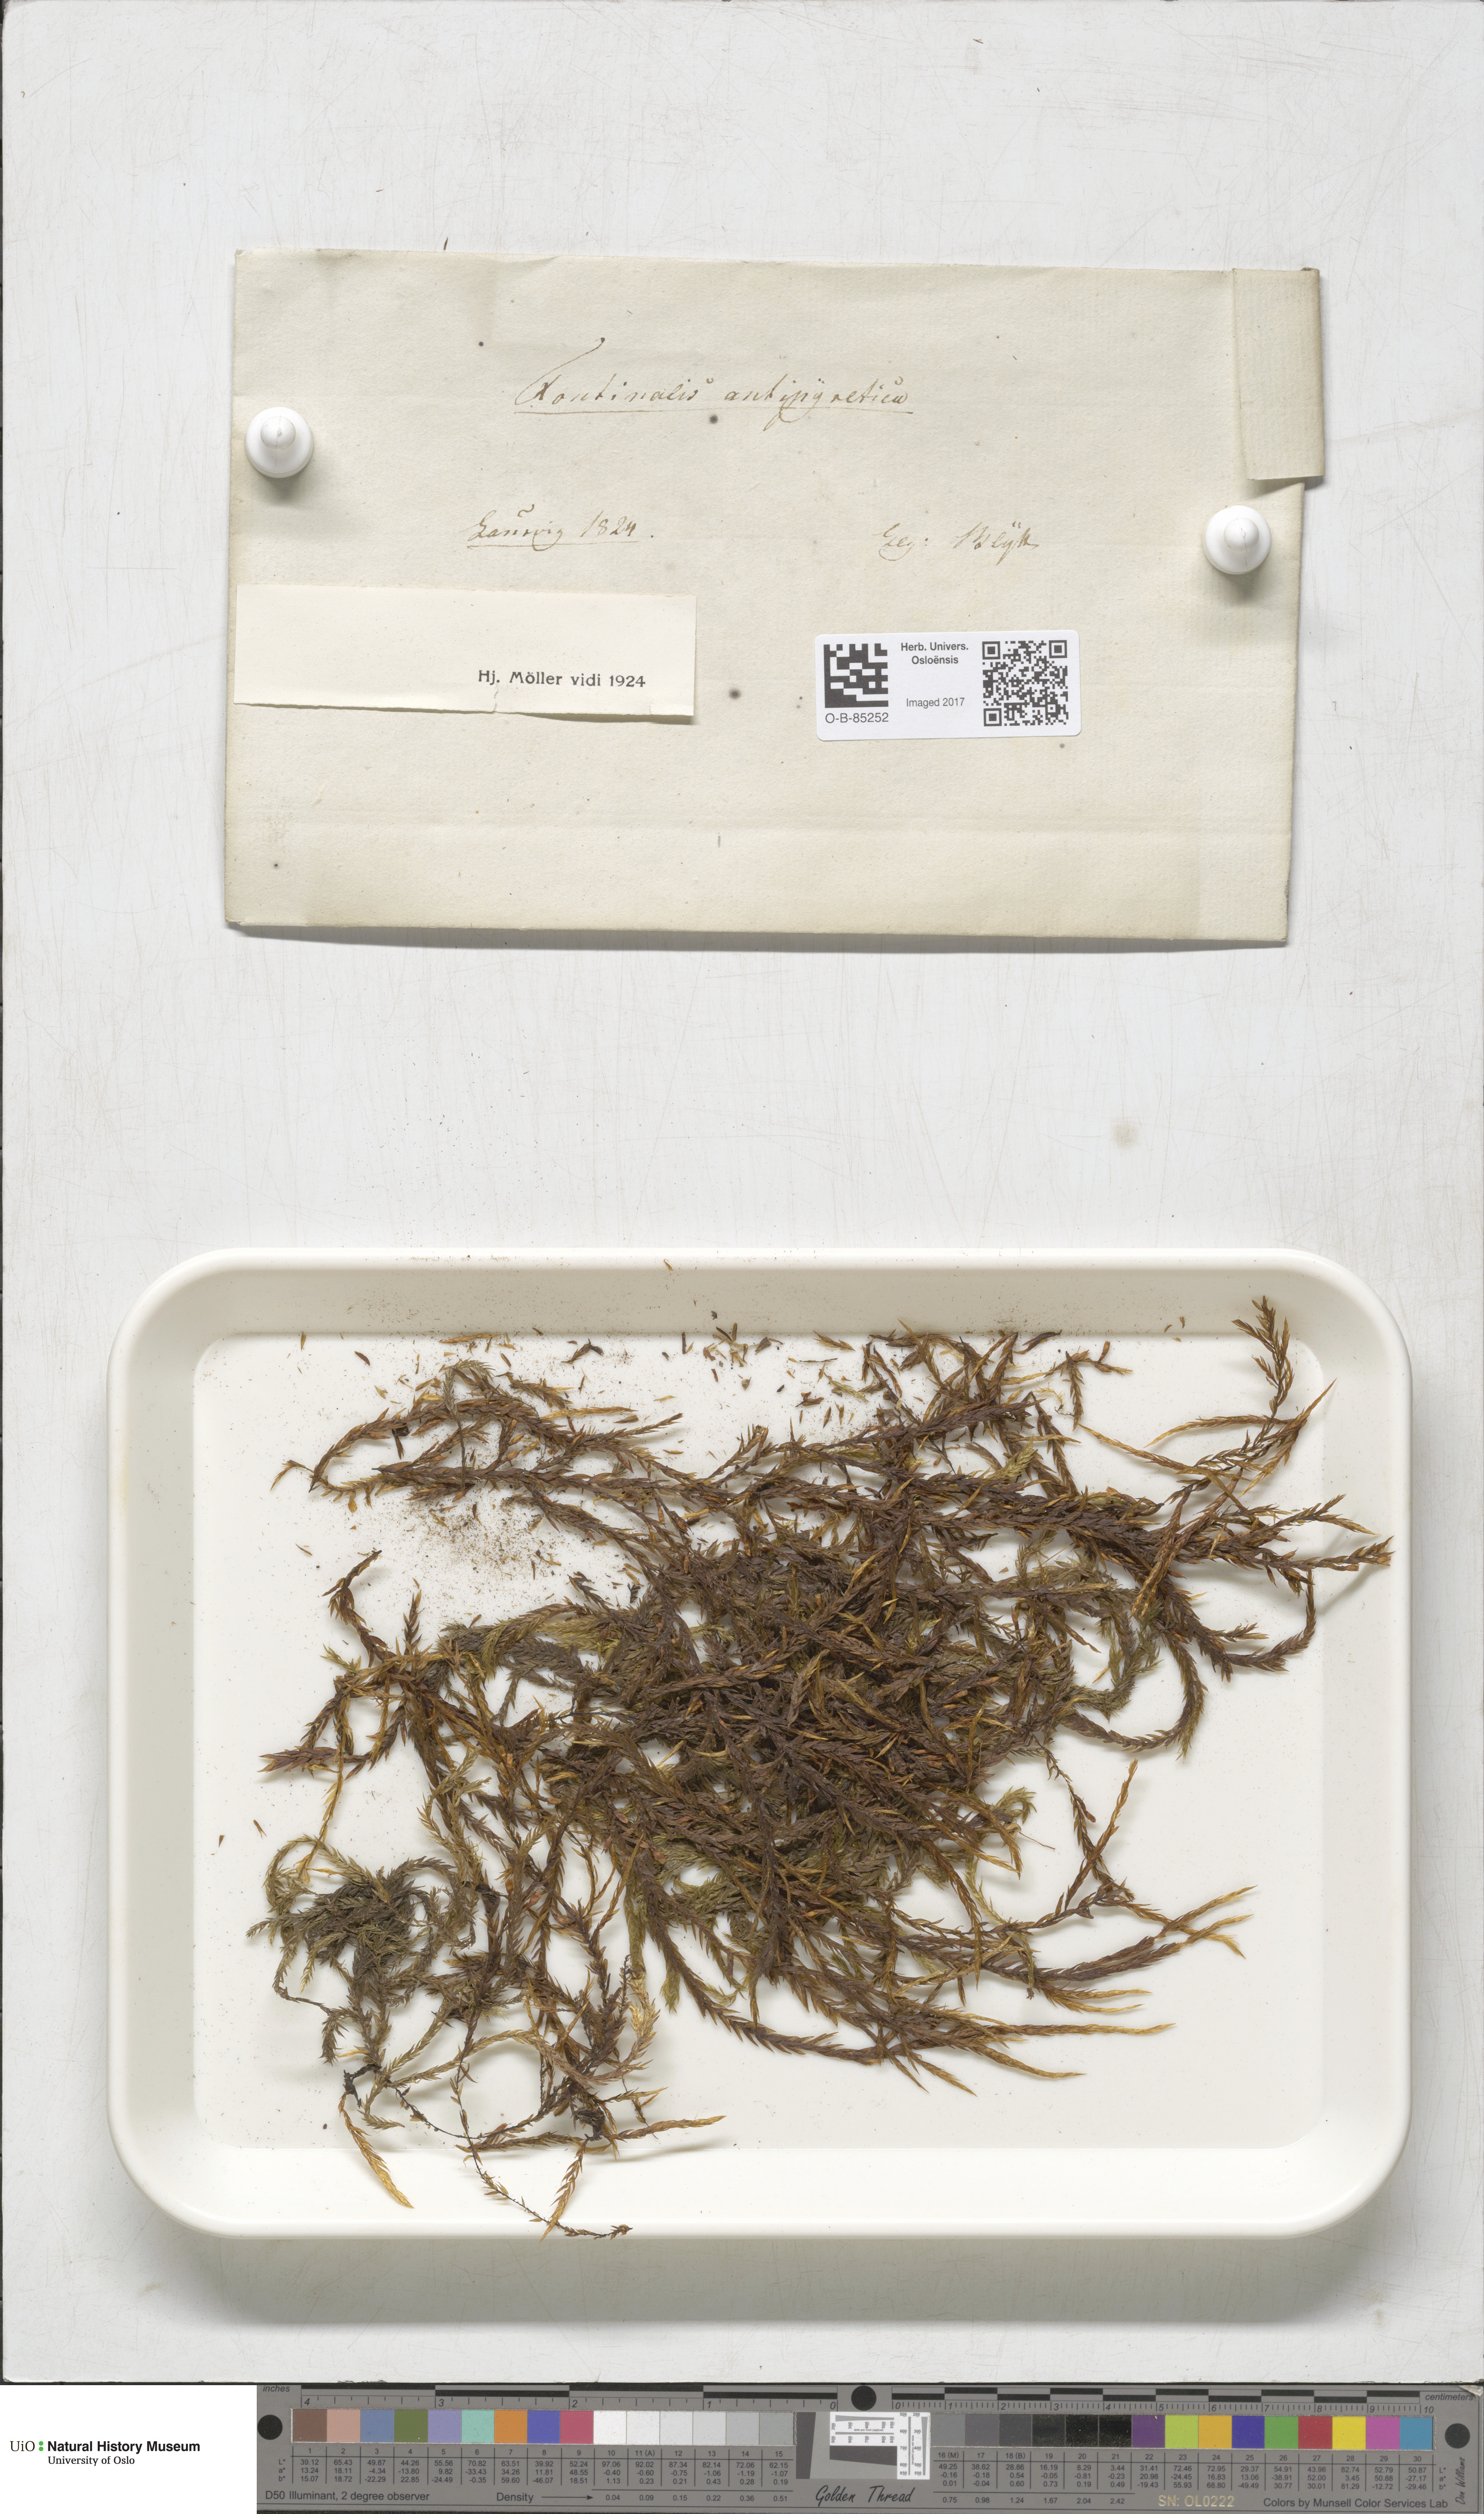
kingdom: Plantae
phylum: Bryophyta
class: Bryopsida
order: Hypnales
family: Fontinalaceae
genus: Fontinalis
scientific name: Fontinalis antipyretica
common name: Greater water-moss
